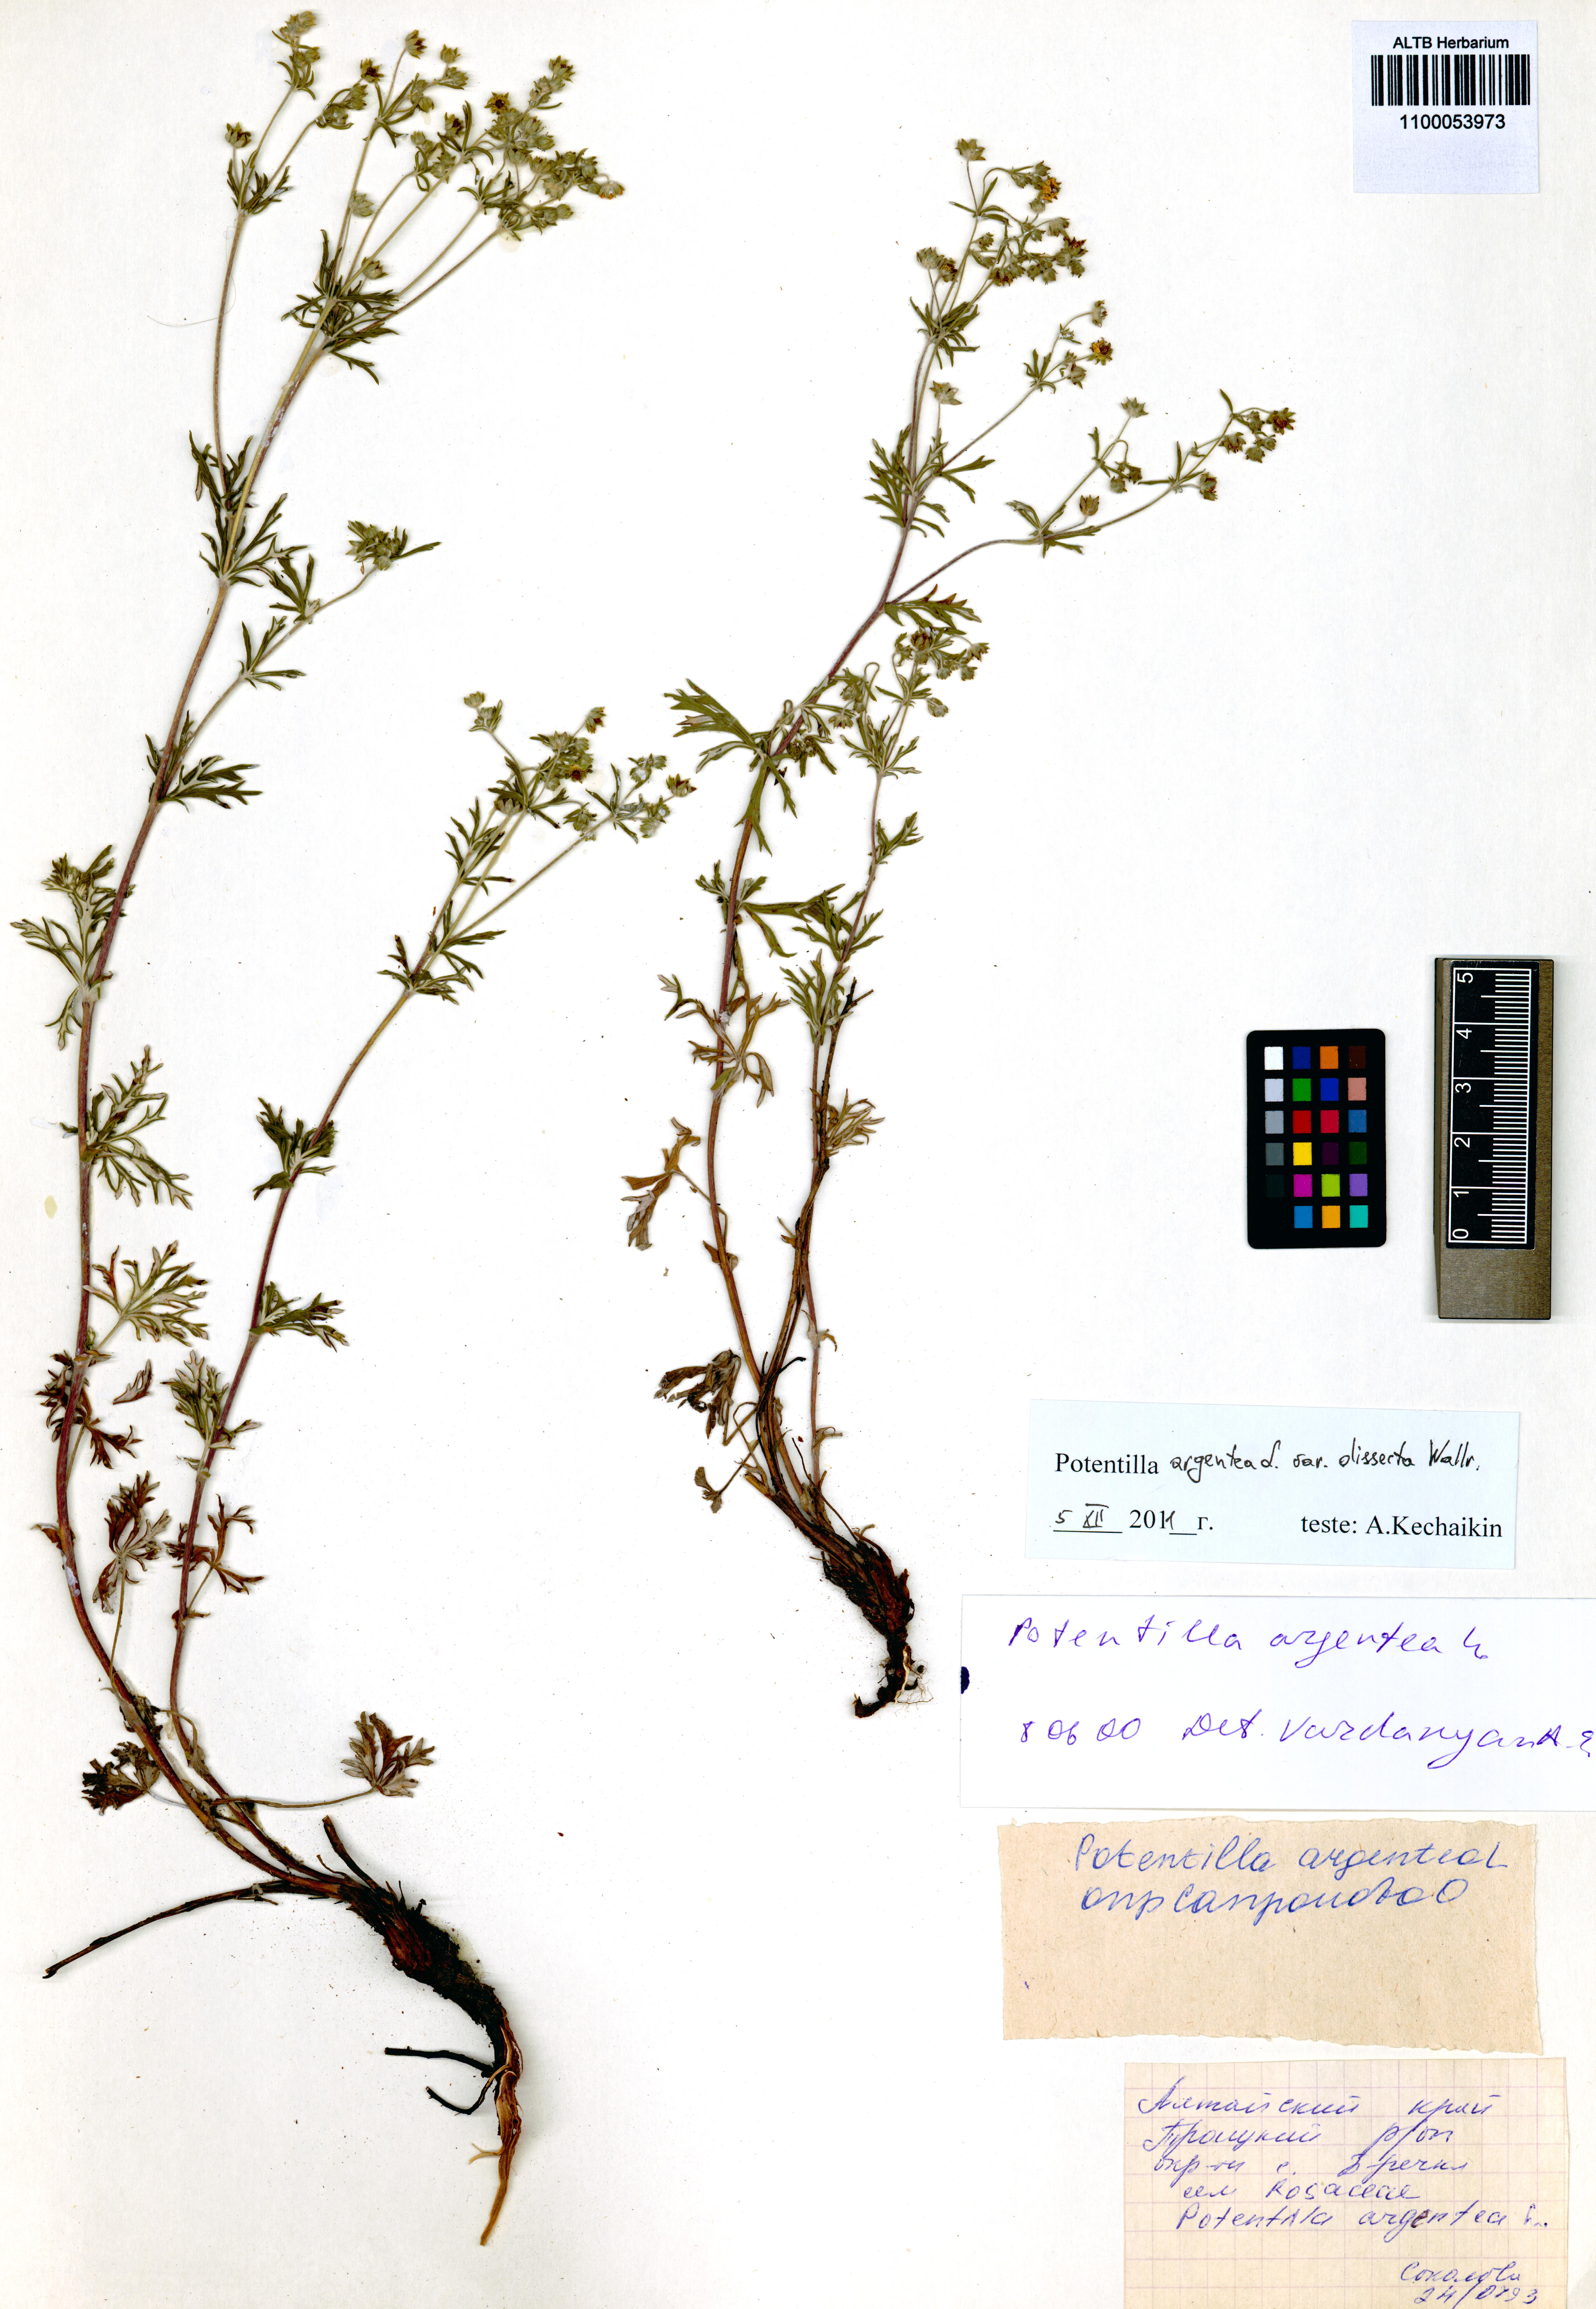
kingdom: Plantae
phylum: Tracheophyta
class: Magnoliopsida
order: Rosales
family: Rosaceae
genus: Potentilla
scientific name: Potentilla argentea
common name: Hoary cinquefoil
